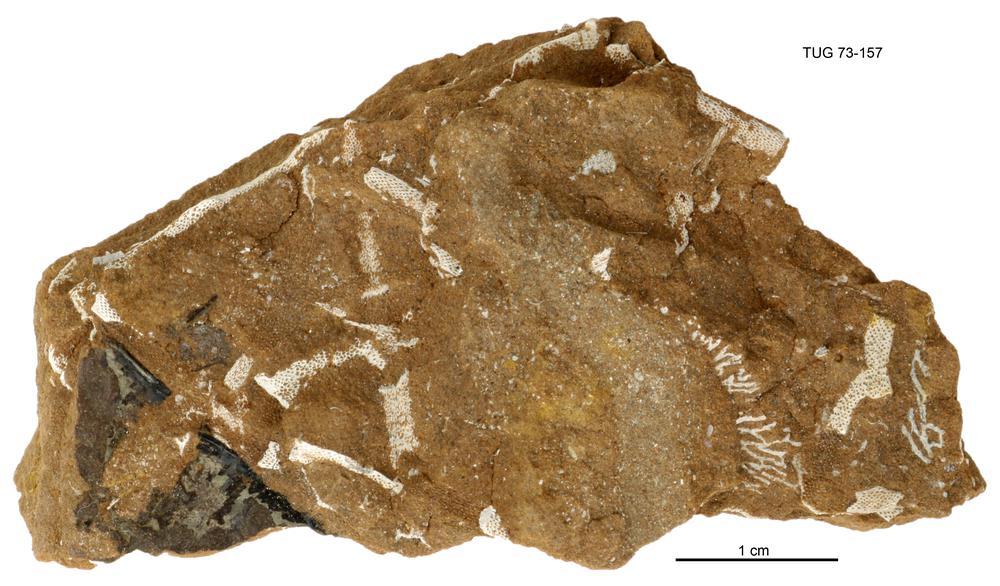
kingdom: Animalia
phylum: Cnidaria
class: Scyphozoa
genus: Sphenothallus
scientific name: Sphenothallus
